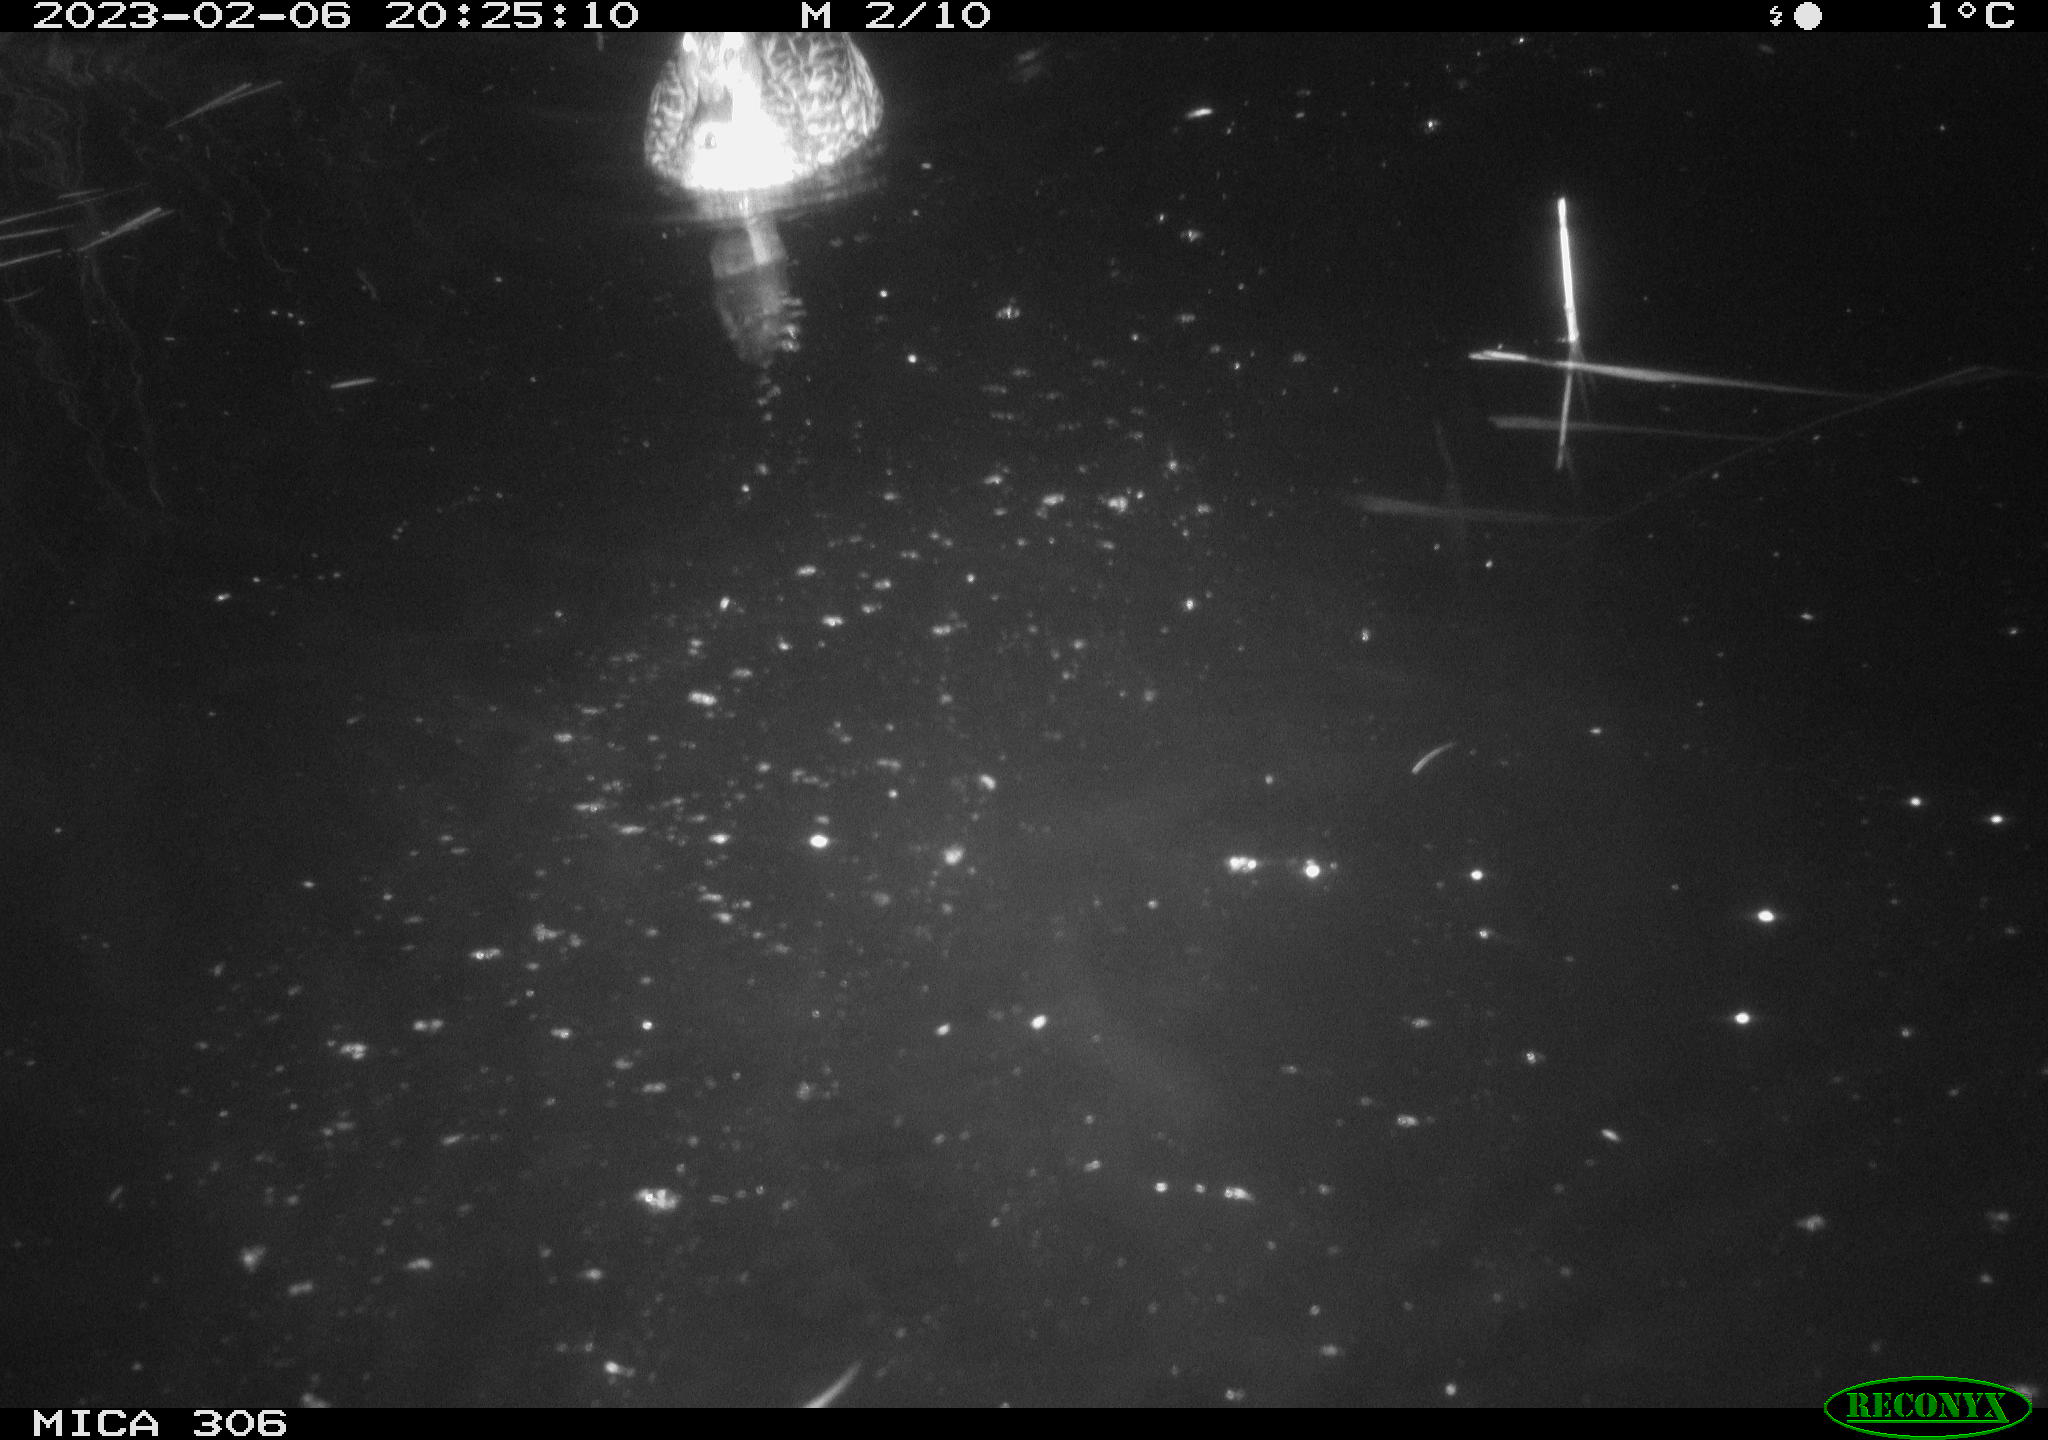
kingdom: Animalia
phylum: Chordata
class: Aves
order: Anseriformes
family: Anatidae
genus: Anas
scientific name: Anas
